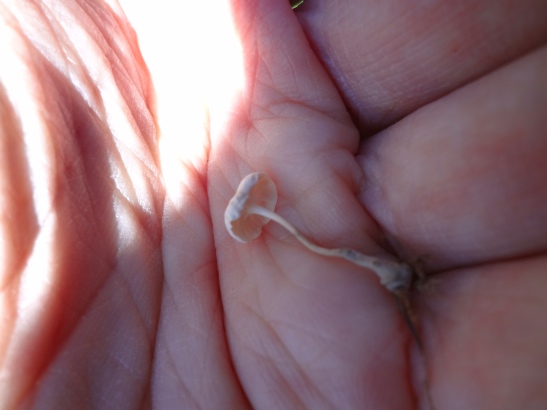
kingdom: Fungi
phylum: Basidiomycota
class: Agaricomycetes
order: Agaricales
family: Omphalotaceae
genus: Marasmiellus
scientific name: Marasmiellus tricolor
